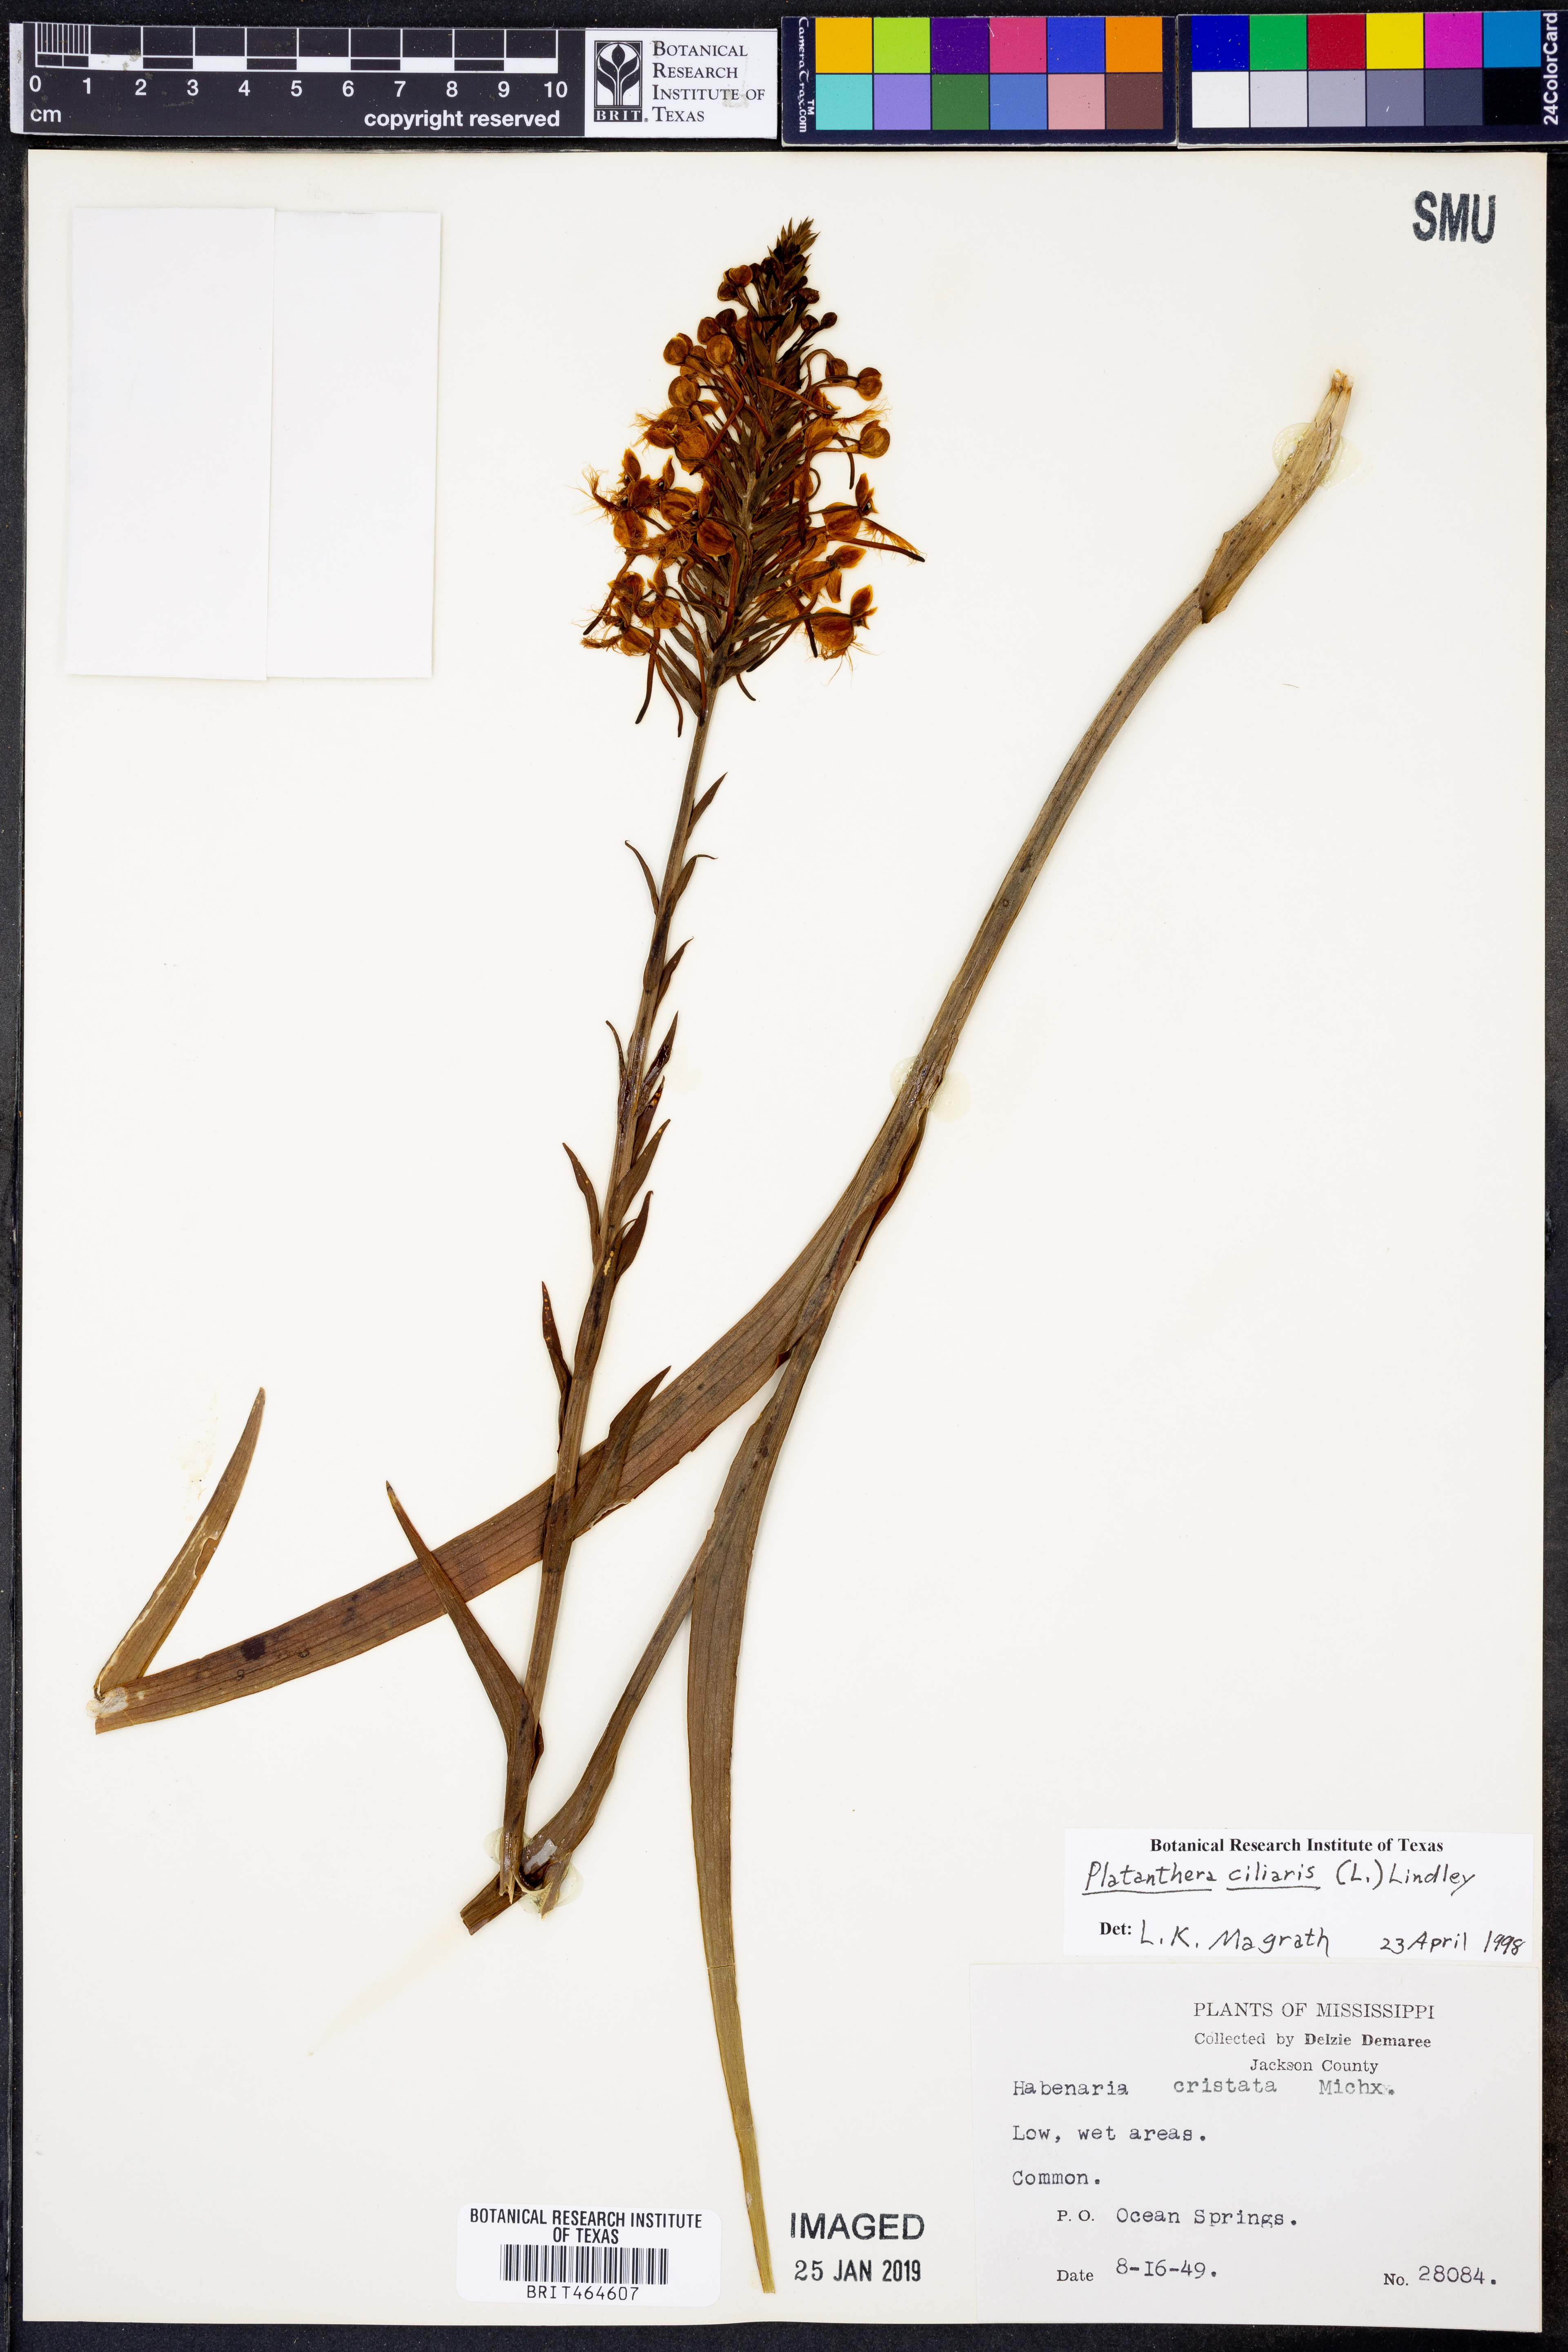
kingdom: Plantae
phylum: Tracheophyta
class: Liliopsida
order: Asparagales
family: Orchidaceae
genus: Platanthera
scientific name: Platanthera ciliaris
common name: Yellow fringed orchid
